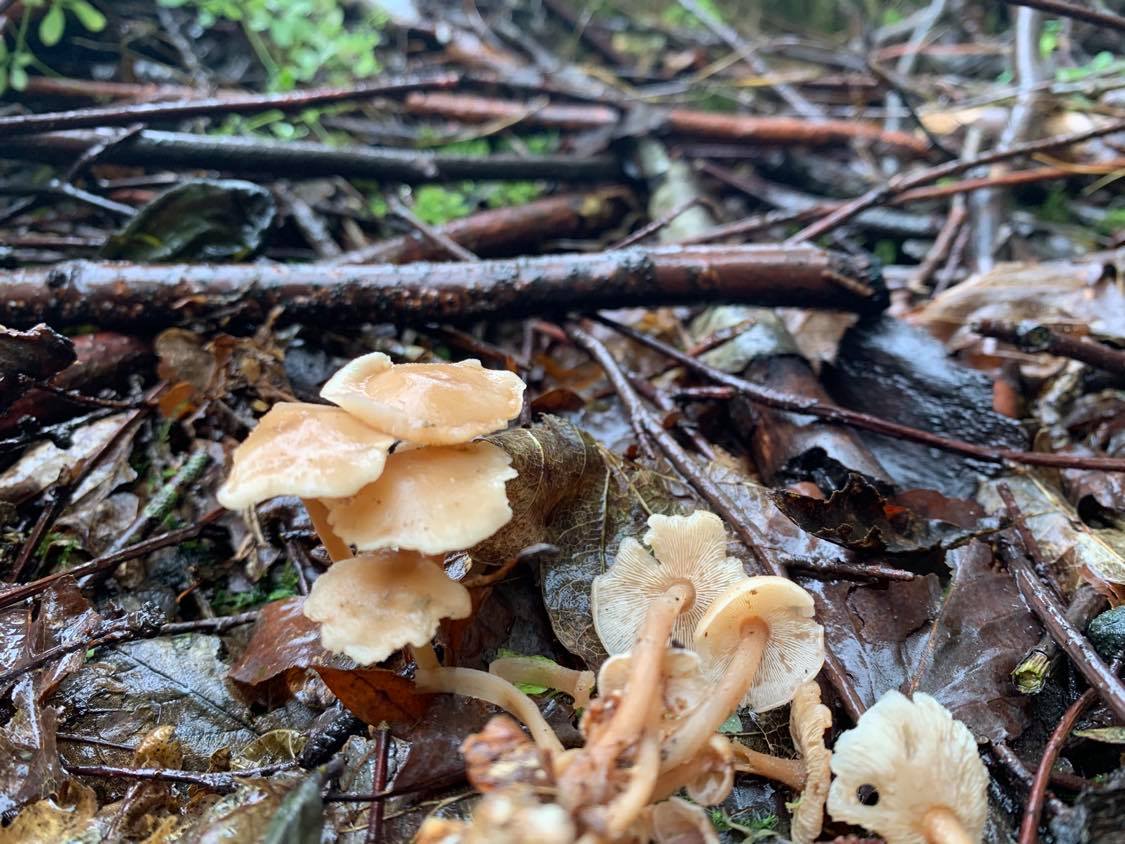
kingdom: Fungi
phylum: Basidiomycota
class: Agaricomycetes
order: Agaricales
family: Omphalotaceae
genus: Collybiopsis
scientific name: Collybiopsis confluens
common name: knippe-fladhat
